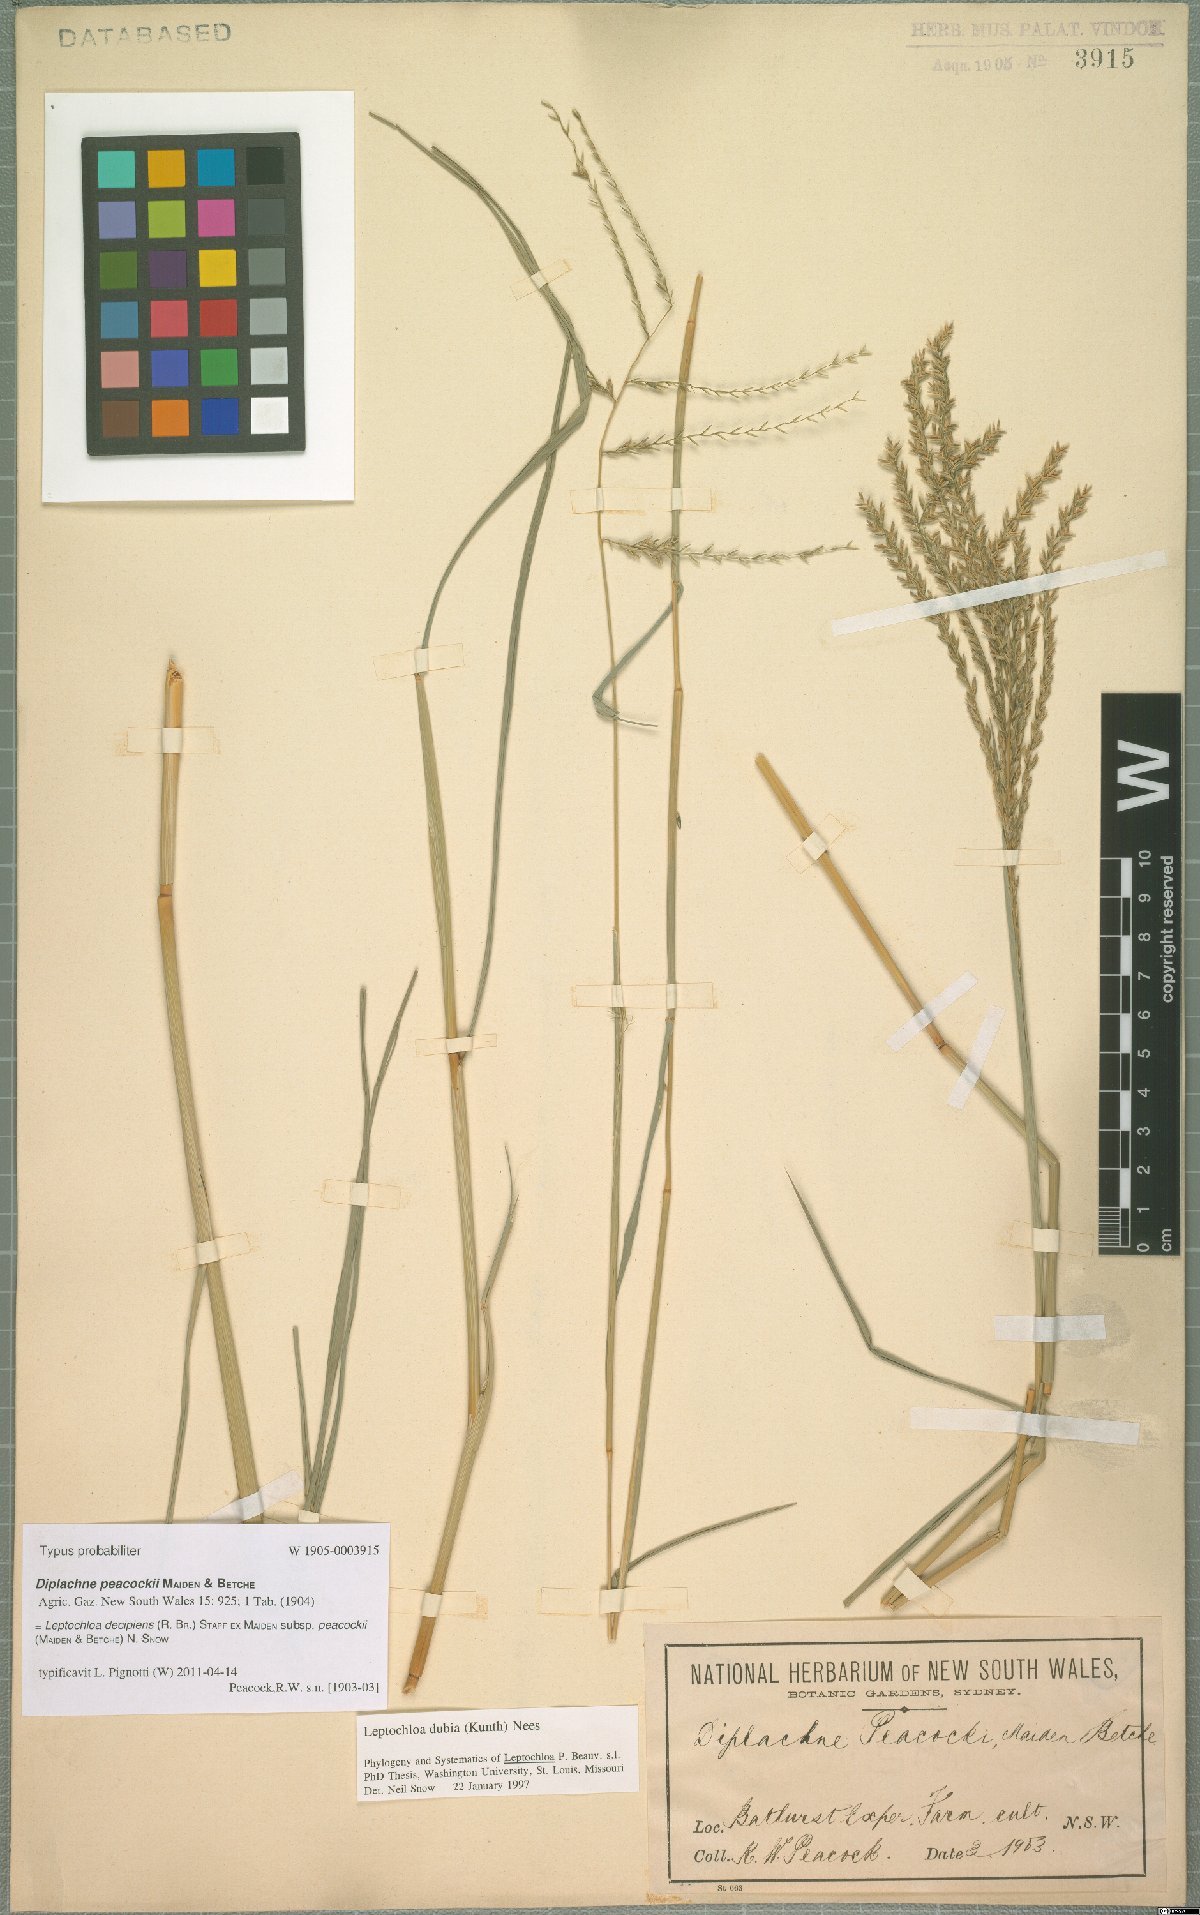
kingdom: Plantae
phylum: Tracheophyta
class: Liliopsida
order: Poales
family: Poaceae
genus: Leptochloa
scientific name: Leptochloa decipiens
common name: Australian sprangletop
